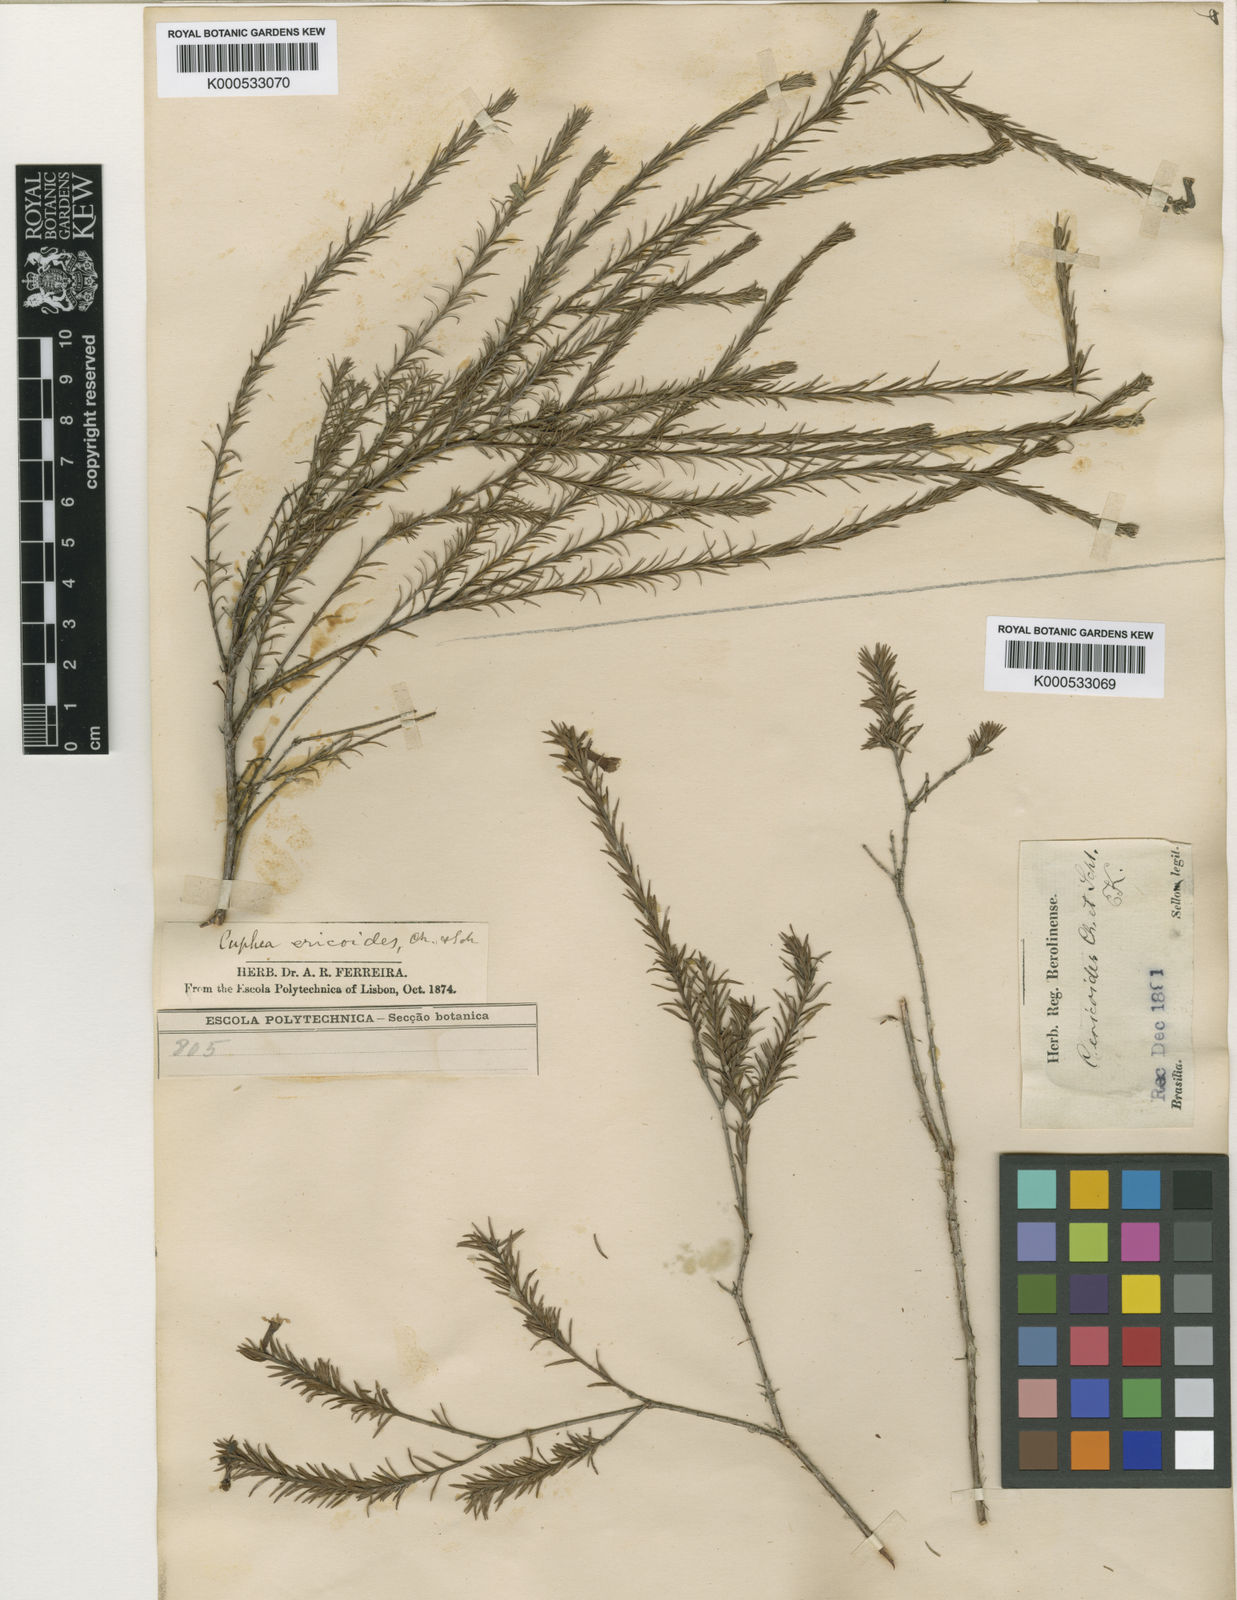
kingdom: Plantae
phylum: Tracheophyta
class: Magnoliopsida
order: Myrtales
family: Lythraceae
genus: Cuphea
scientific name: Cuphea ericoides
